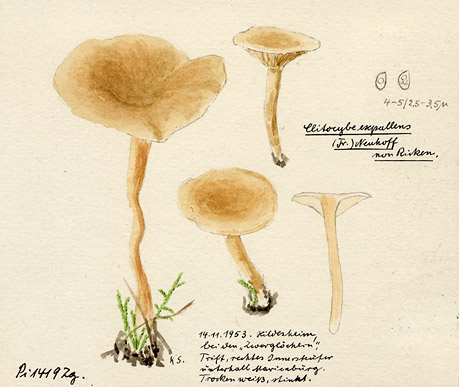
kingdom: Fungi
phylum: Basidiomycota
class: Agaricomycetes
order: Agaricales
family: Tricholomataceae
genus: Clitocybe
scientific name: Clitocybe subcordispora
